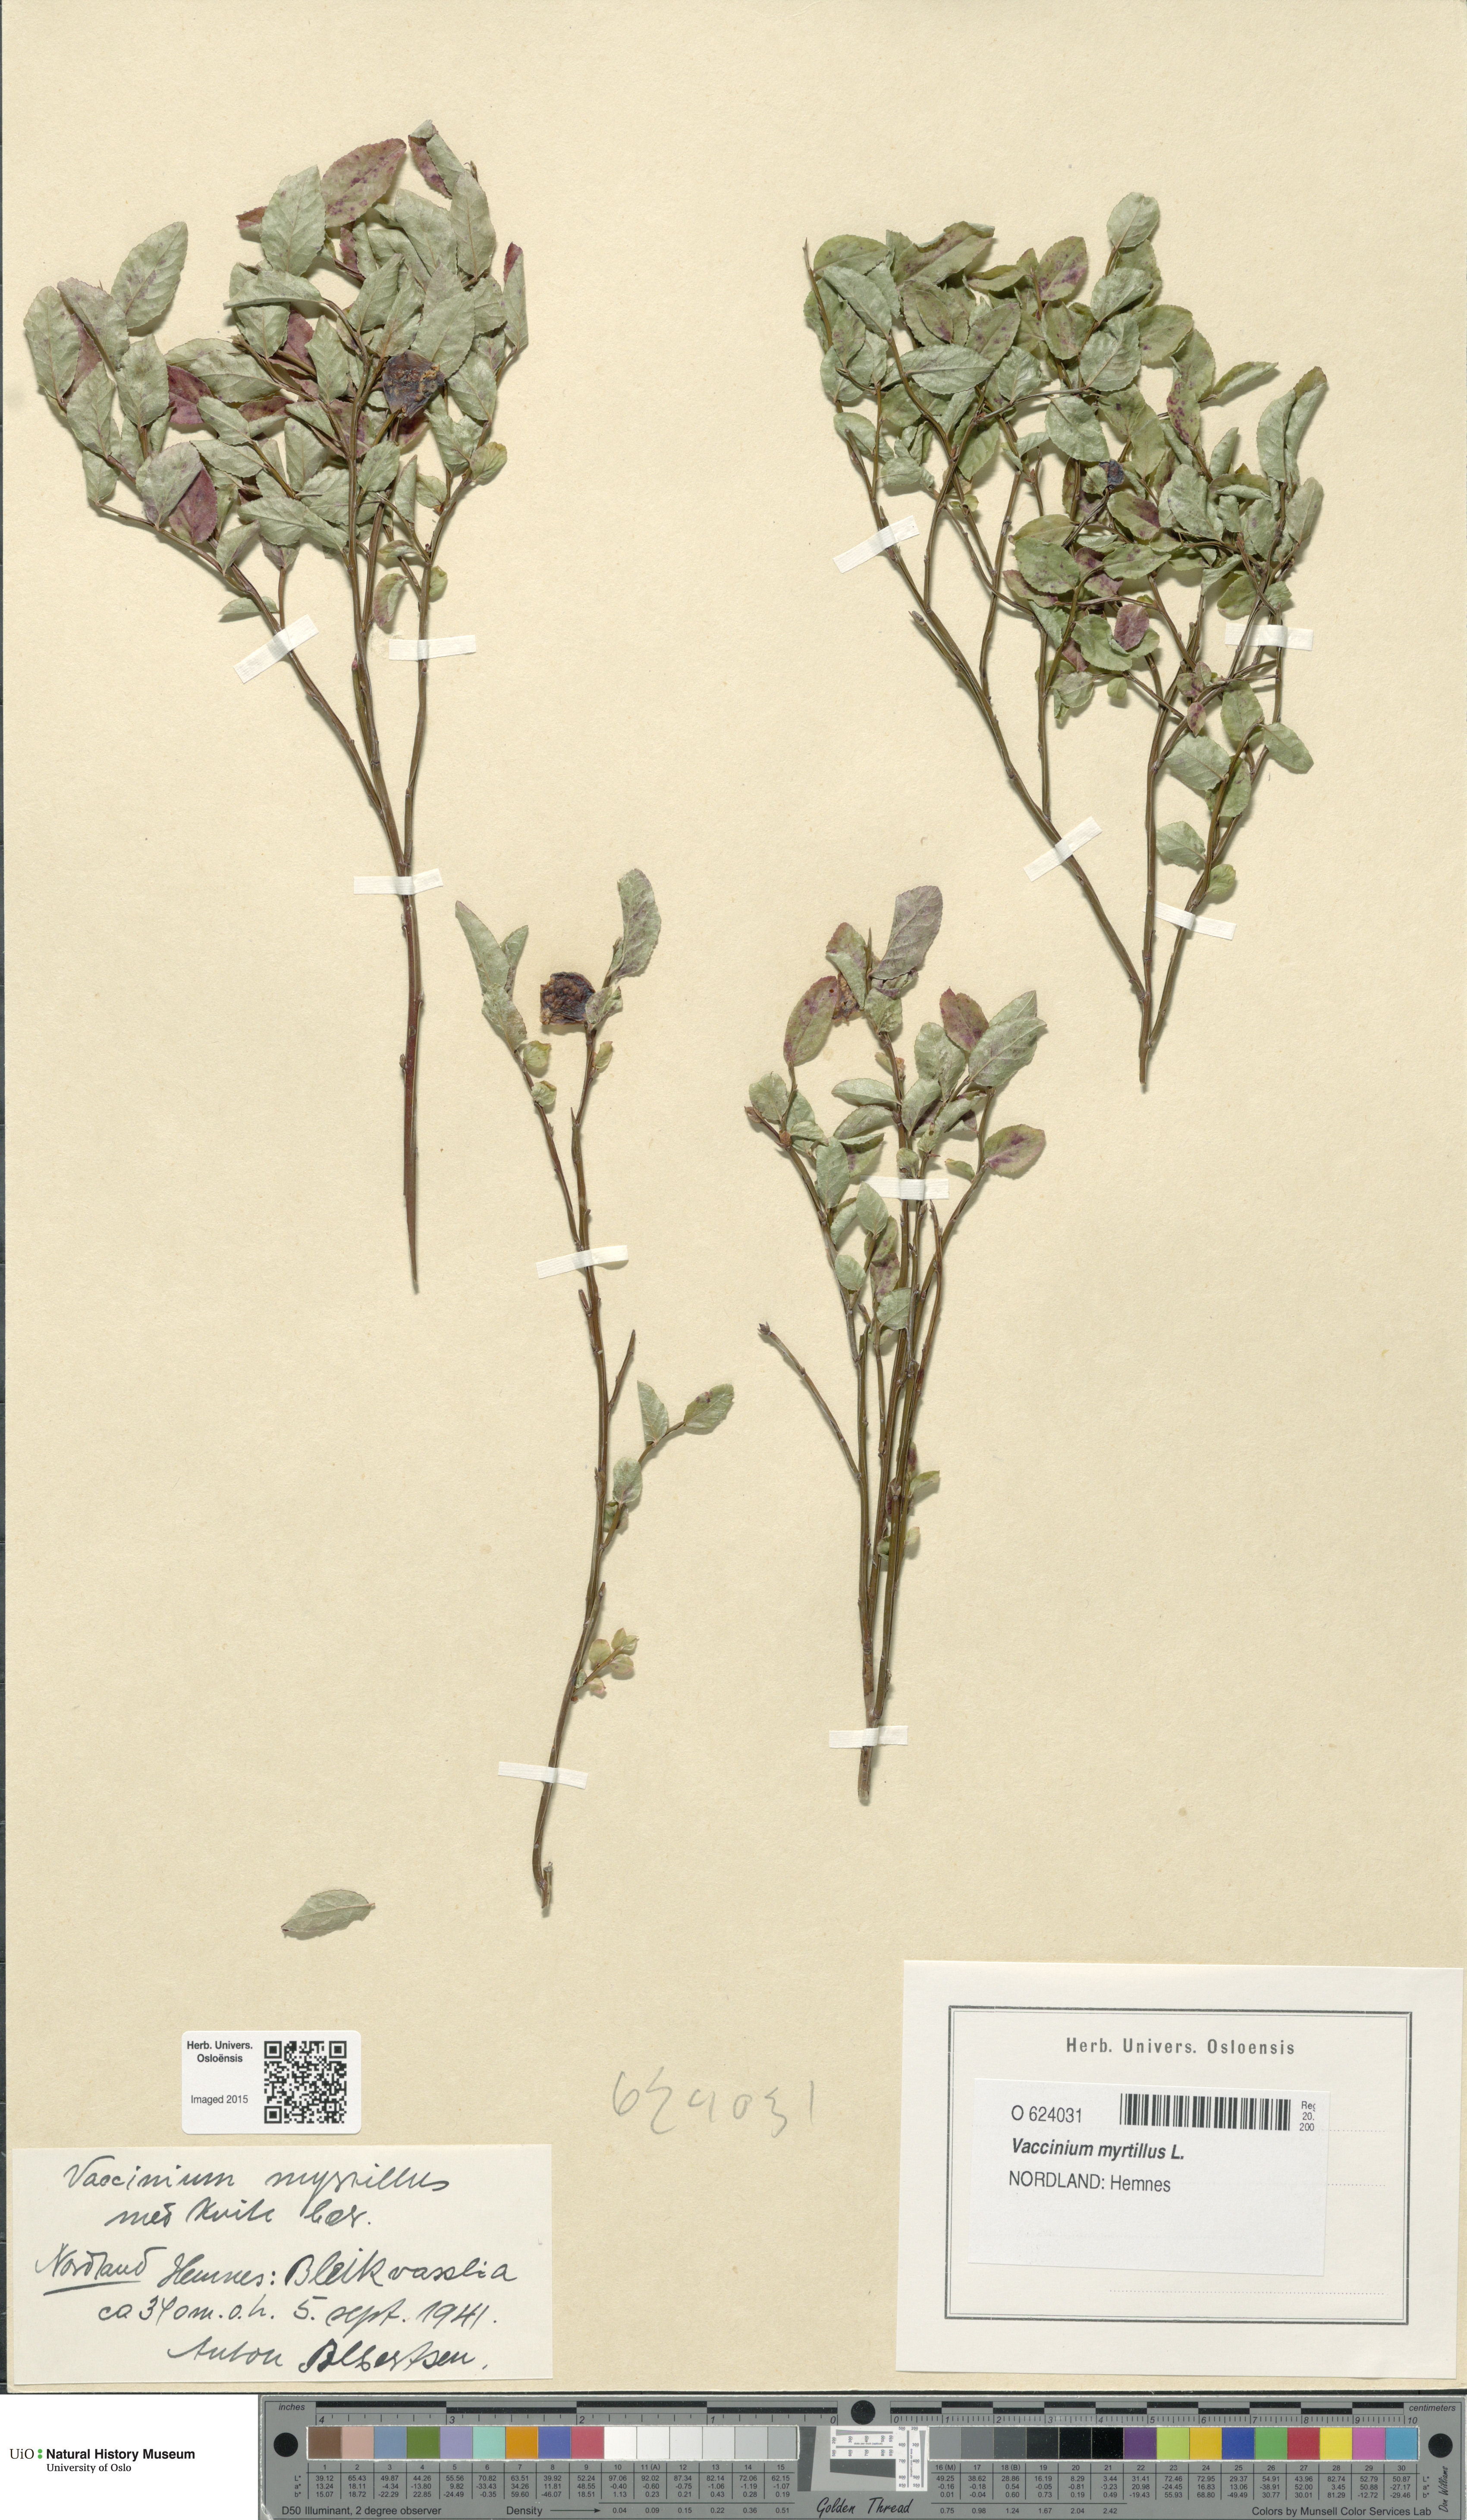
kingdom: Plantae
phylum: Tracheophyta
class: Magnoliopsida
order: Ericales
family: Ericaceae
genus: Vaccinium
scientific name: Vaccinium myrtillus
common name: Bilberry
